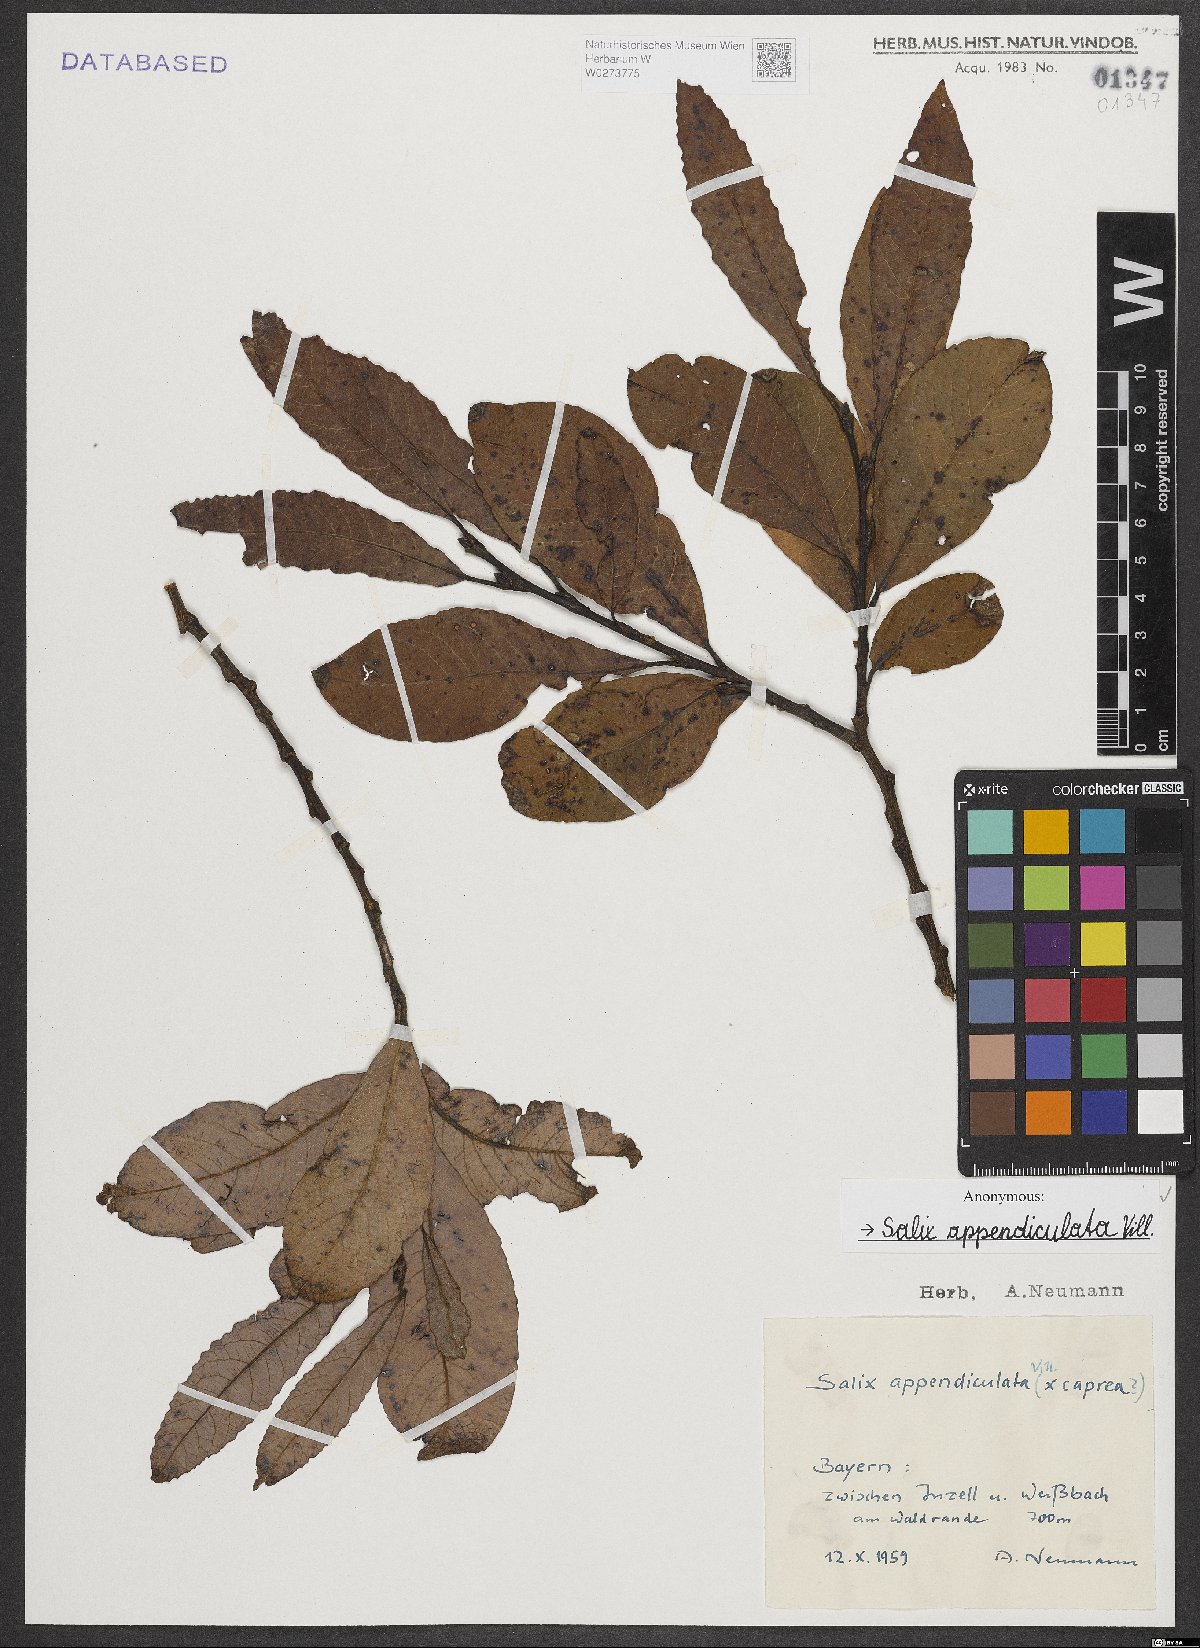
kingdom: Plantae
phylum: Tracheophyta
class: Magnoliopsida
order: Malpighiales
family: Salicaceae
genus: Salix
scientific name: Salix appendiculata
